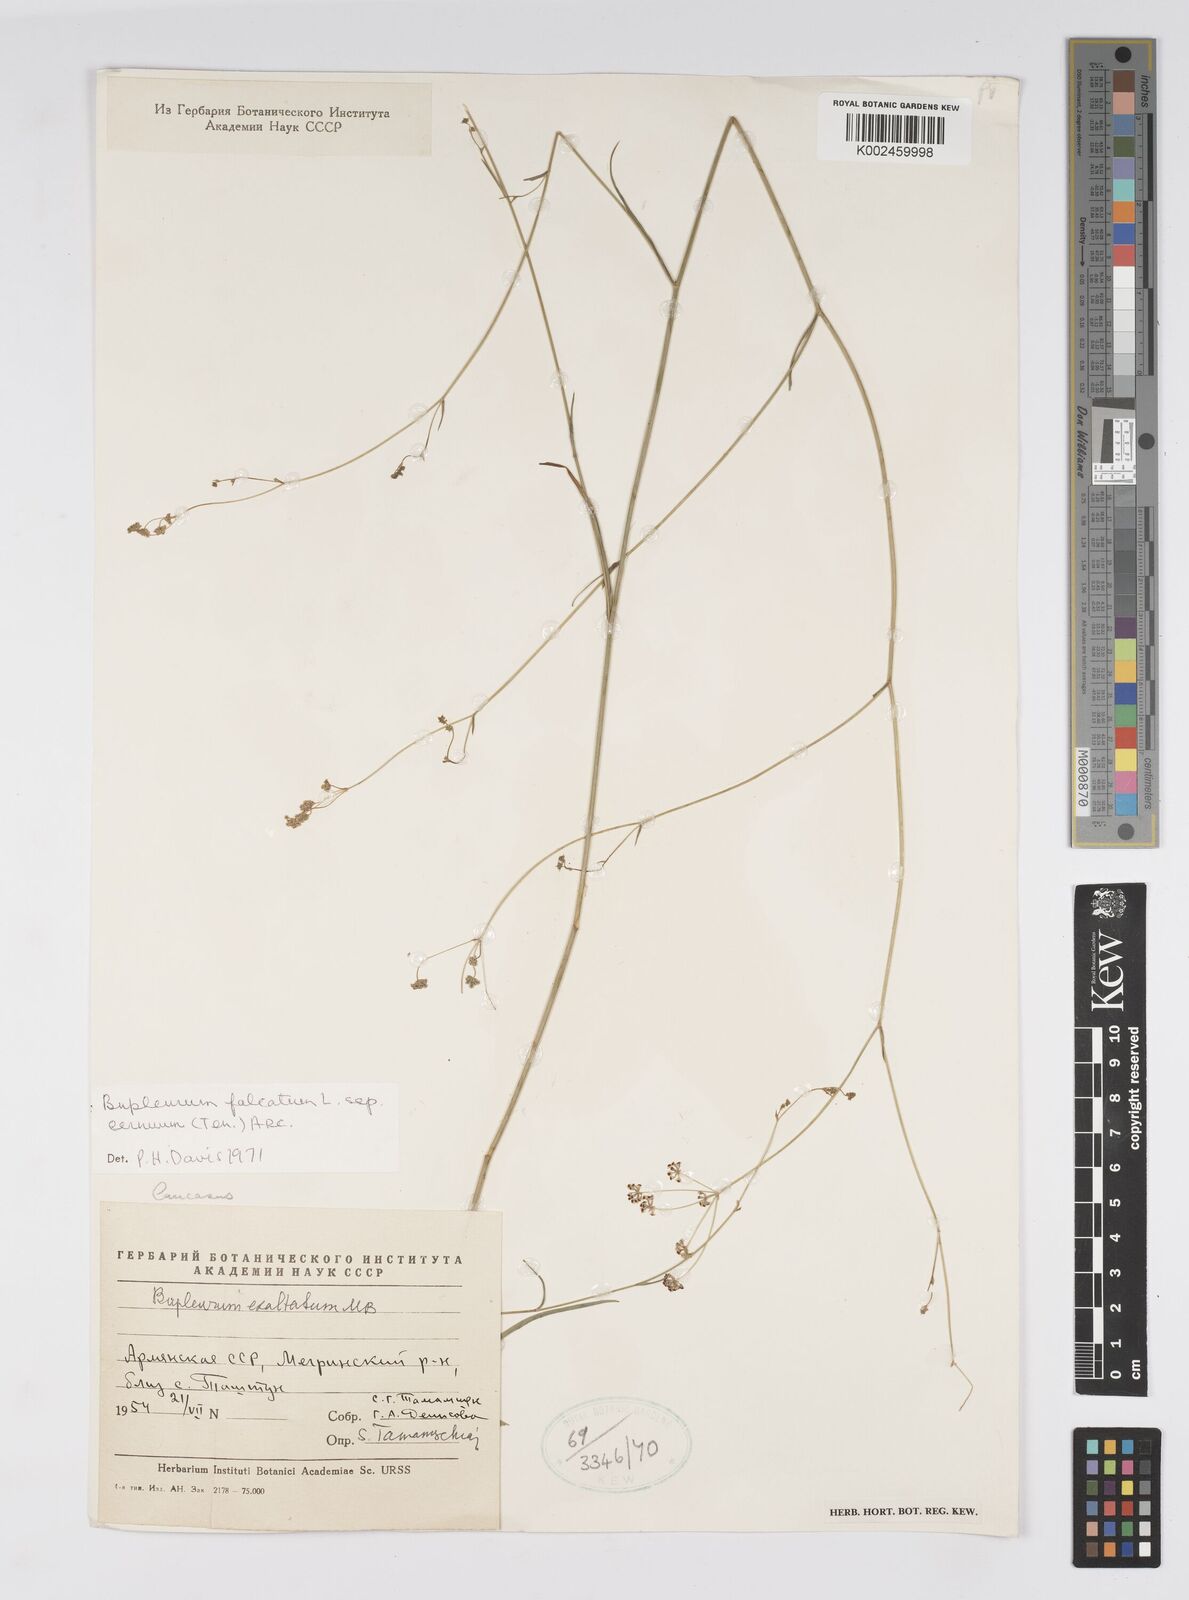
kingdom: Plantae
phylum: Tracheophyta
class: Magnoliopsida
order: Apiales
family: Apiaceae
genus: Bupleurum
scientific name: Bupleurum falcatum
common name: Sickle-leaved hare's-ear
